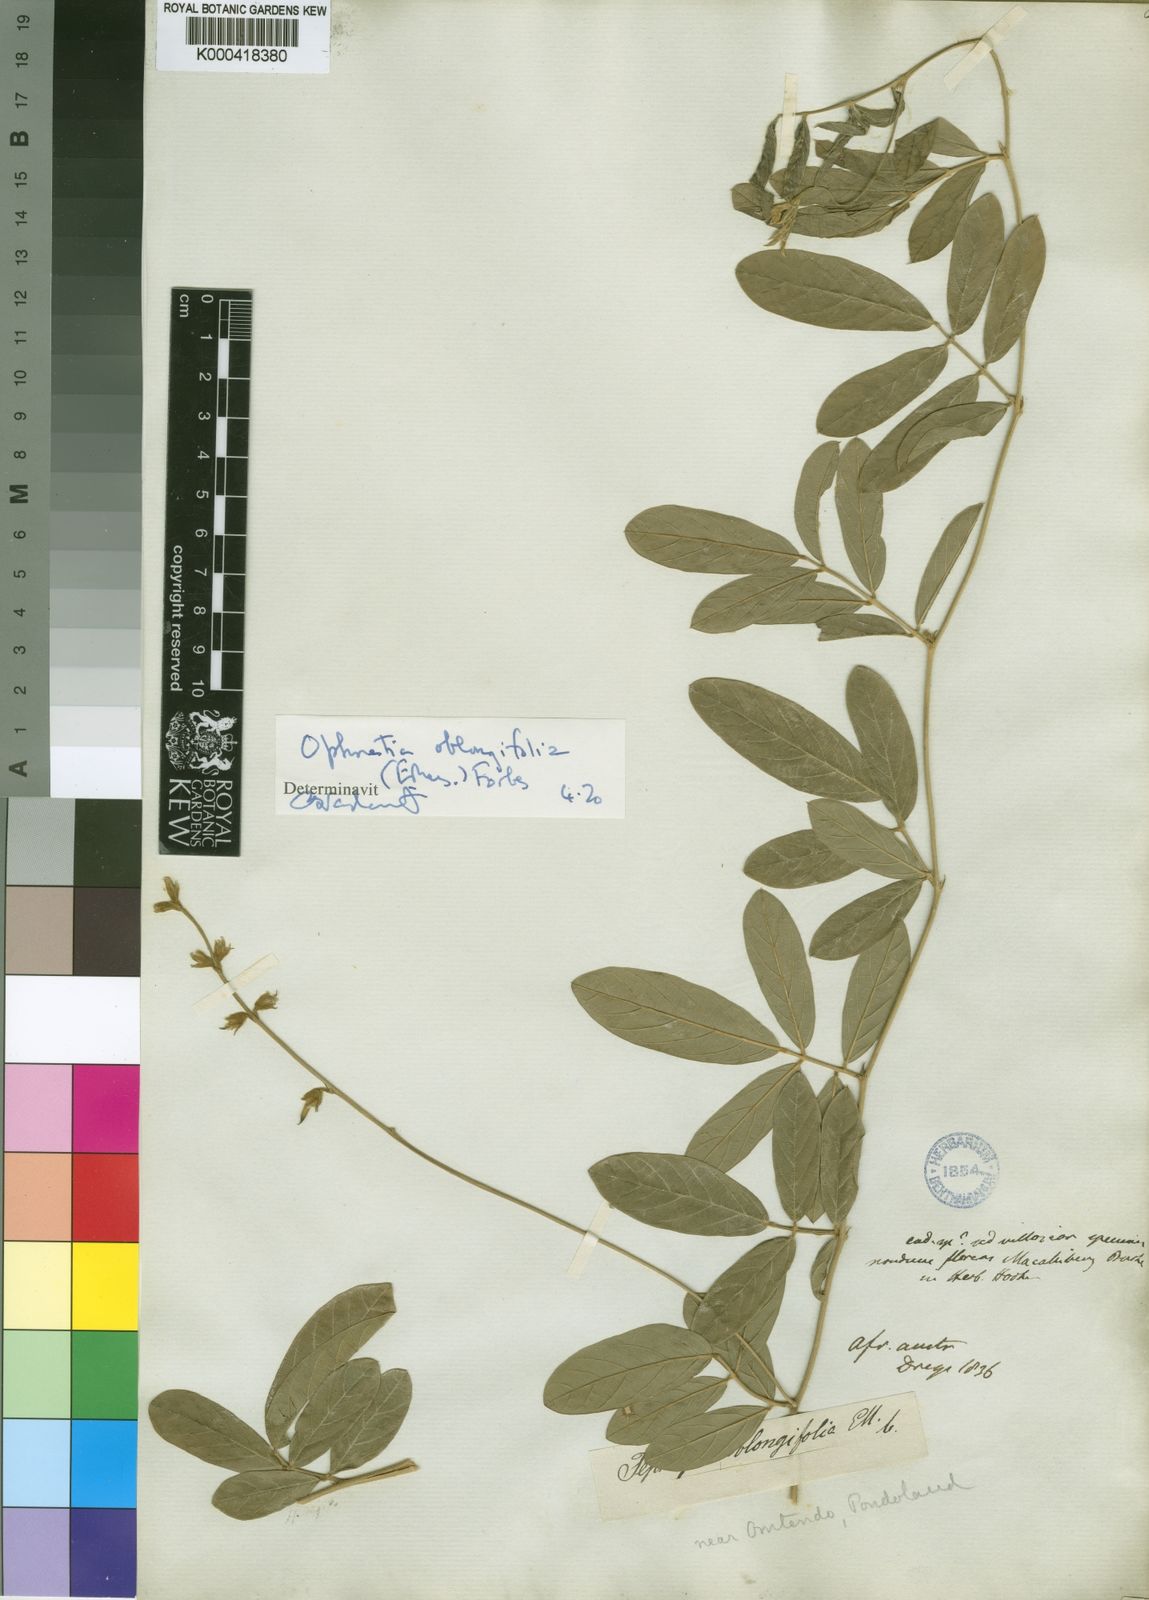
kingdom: Plantae
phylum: Tracheophyta
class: Magnoliopsida
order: Fabales
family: Fabaceae
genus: Ophrestia
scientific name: Ophrestia oblongifolia
